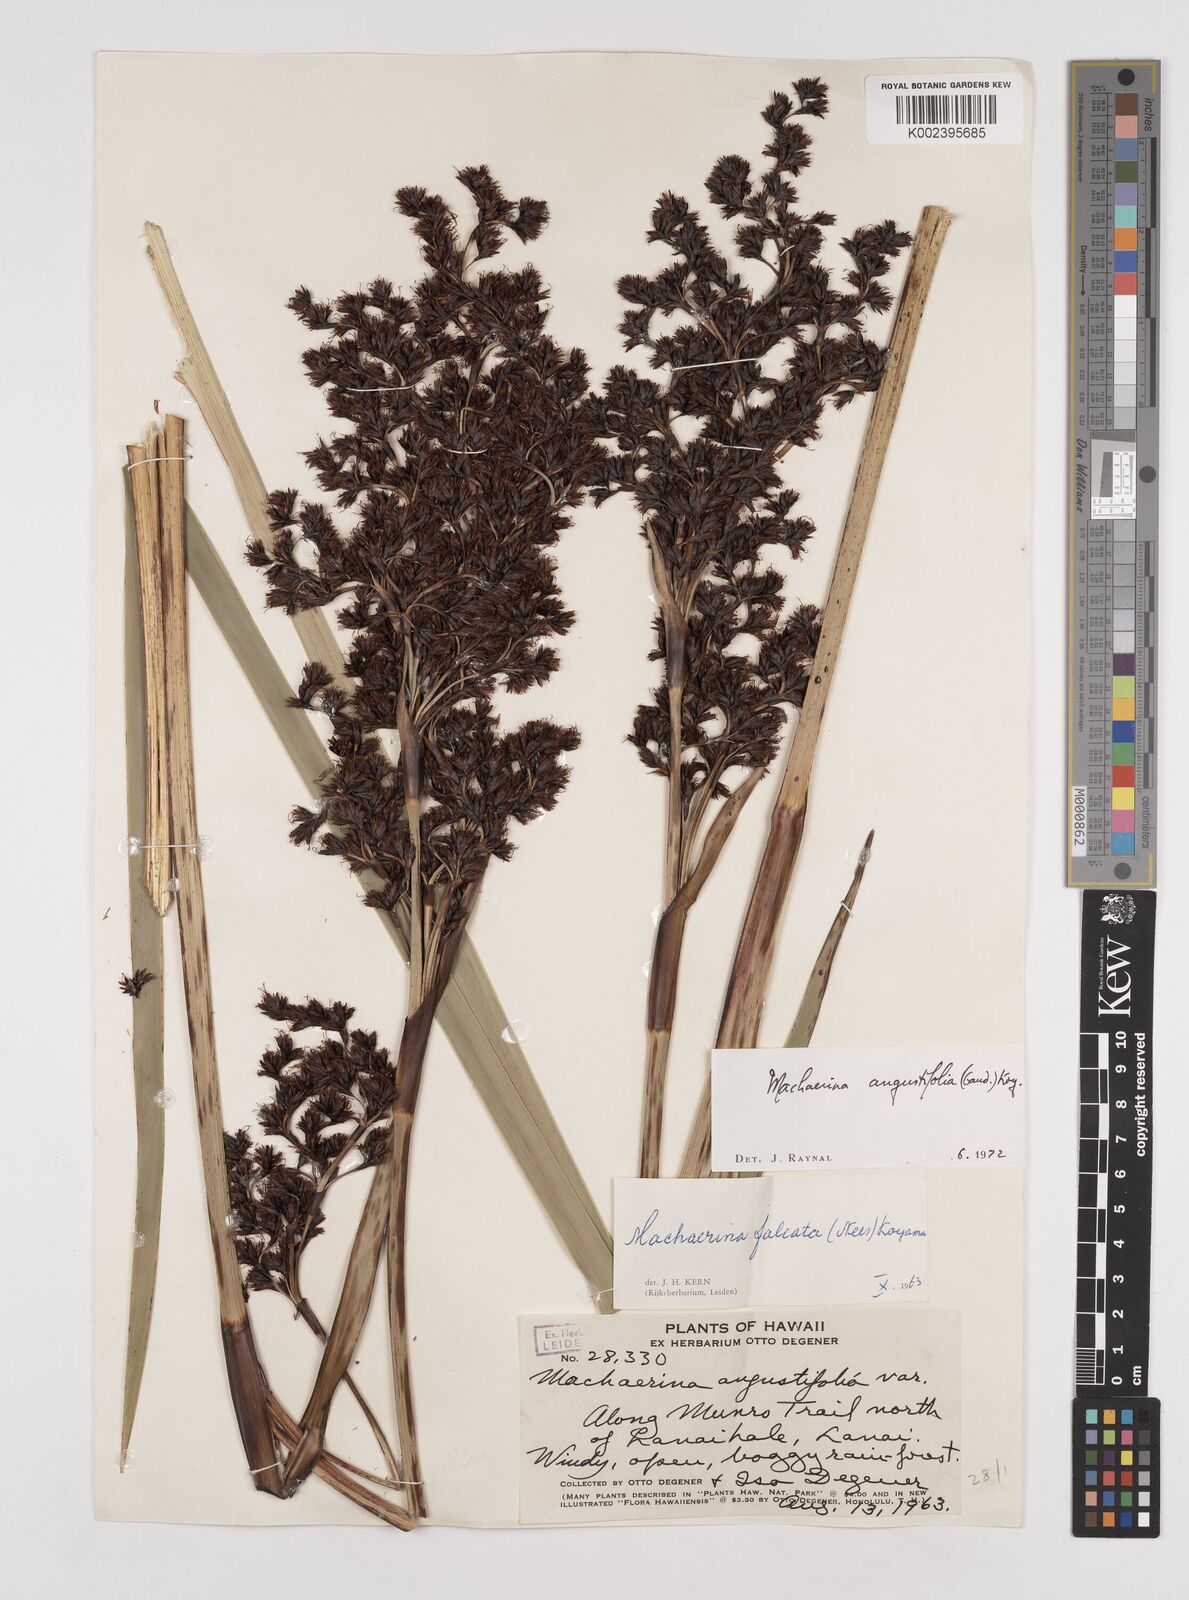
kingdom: Plantae
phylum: Tracheophyta
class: Liliopsida
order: Poales
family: Cyperaceae
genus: Machaerina
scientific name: Machaerina angustifolia
